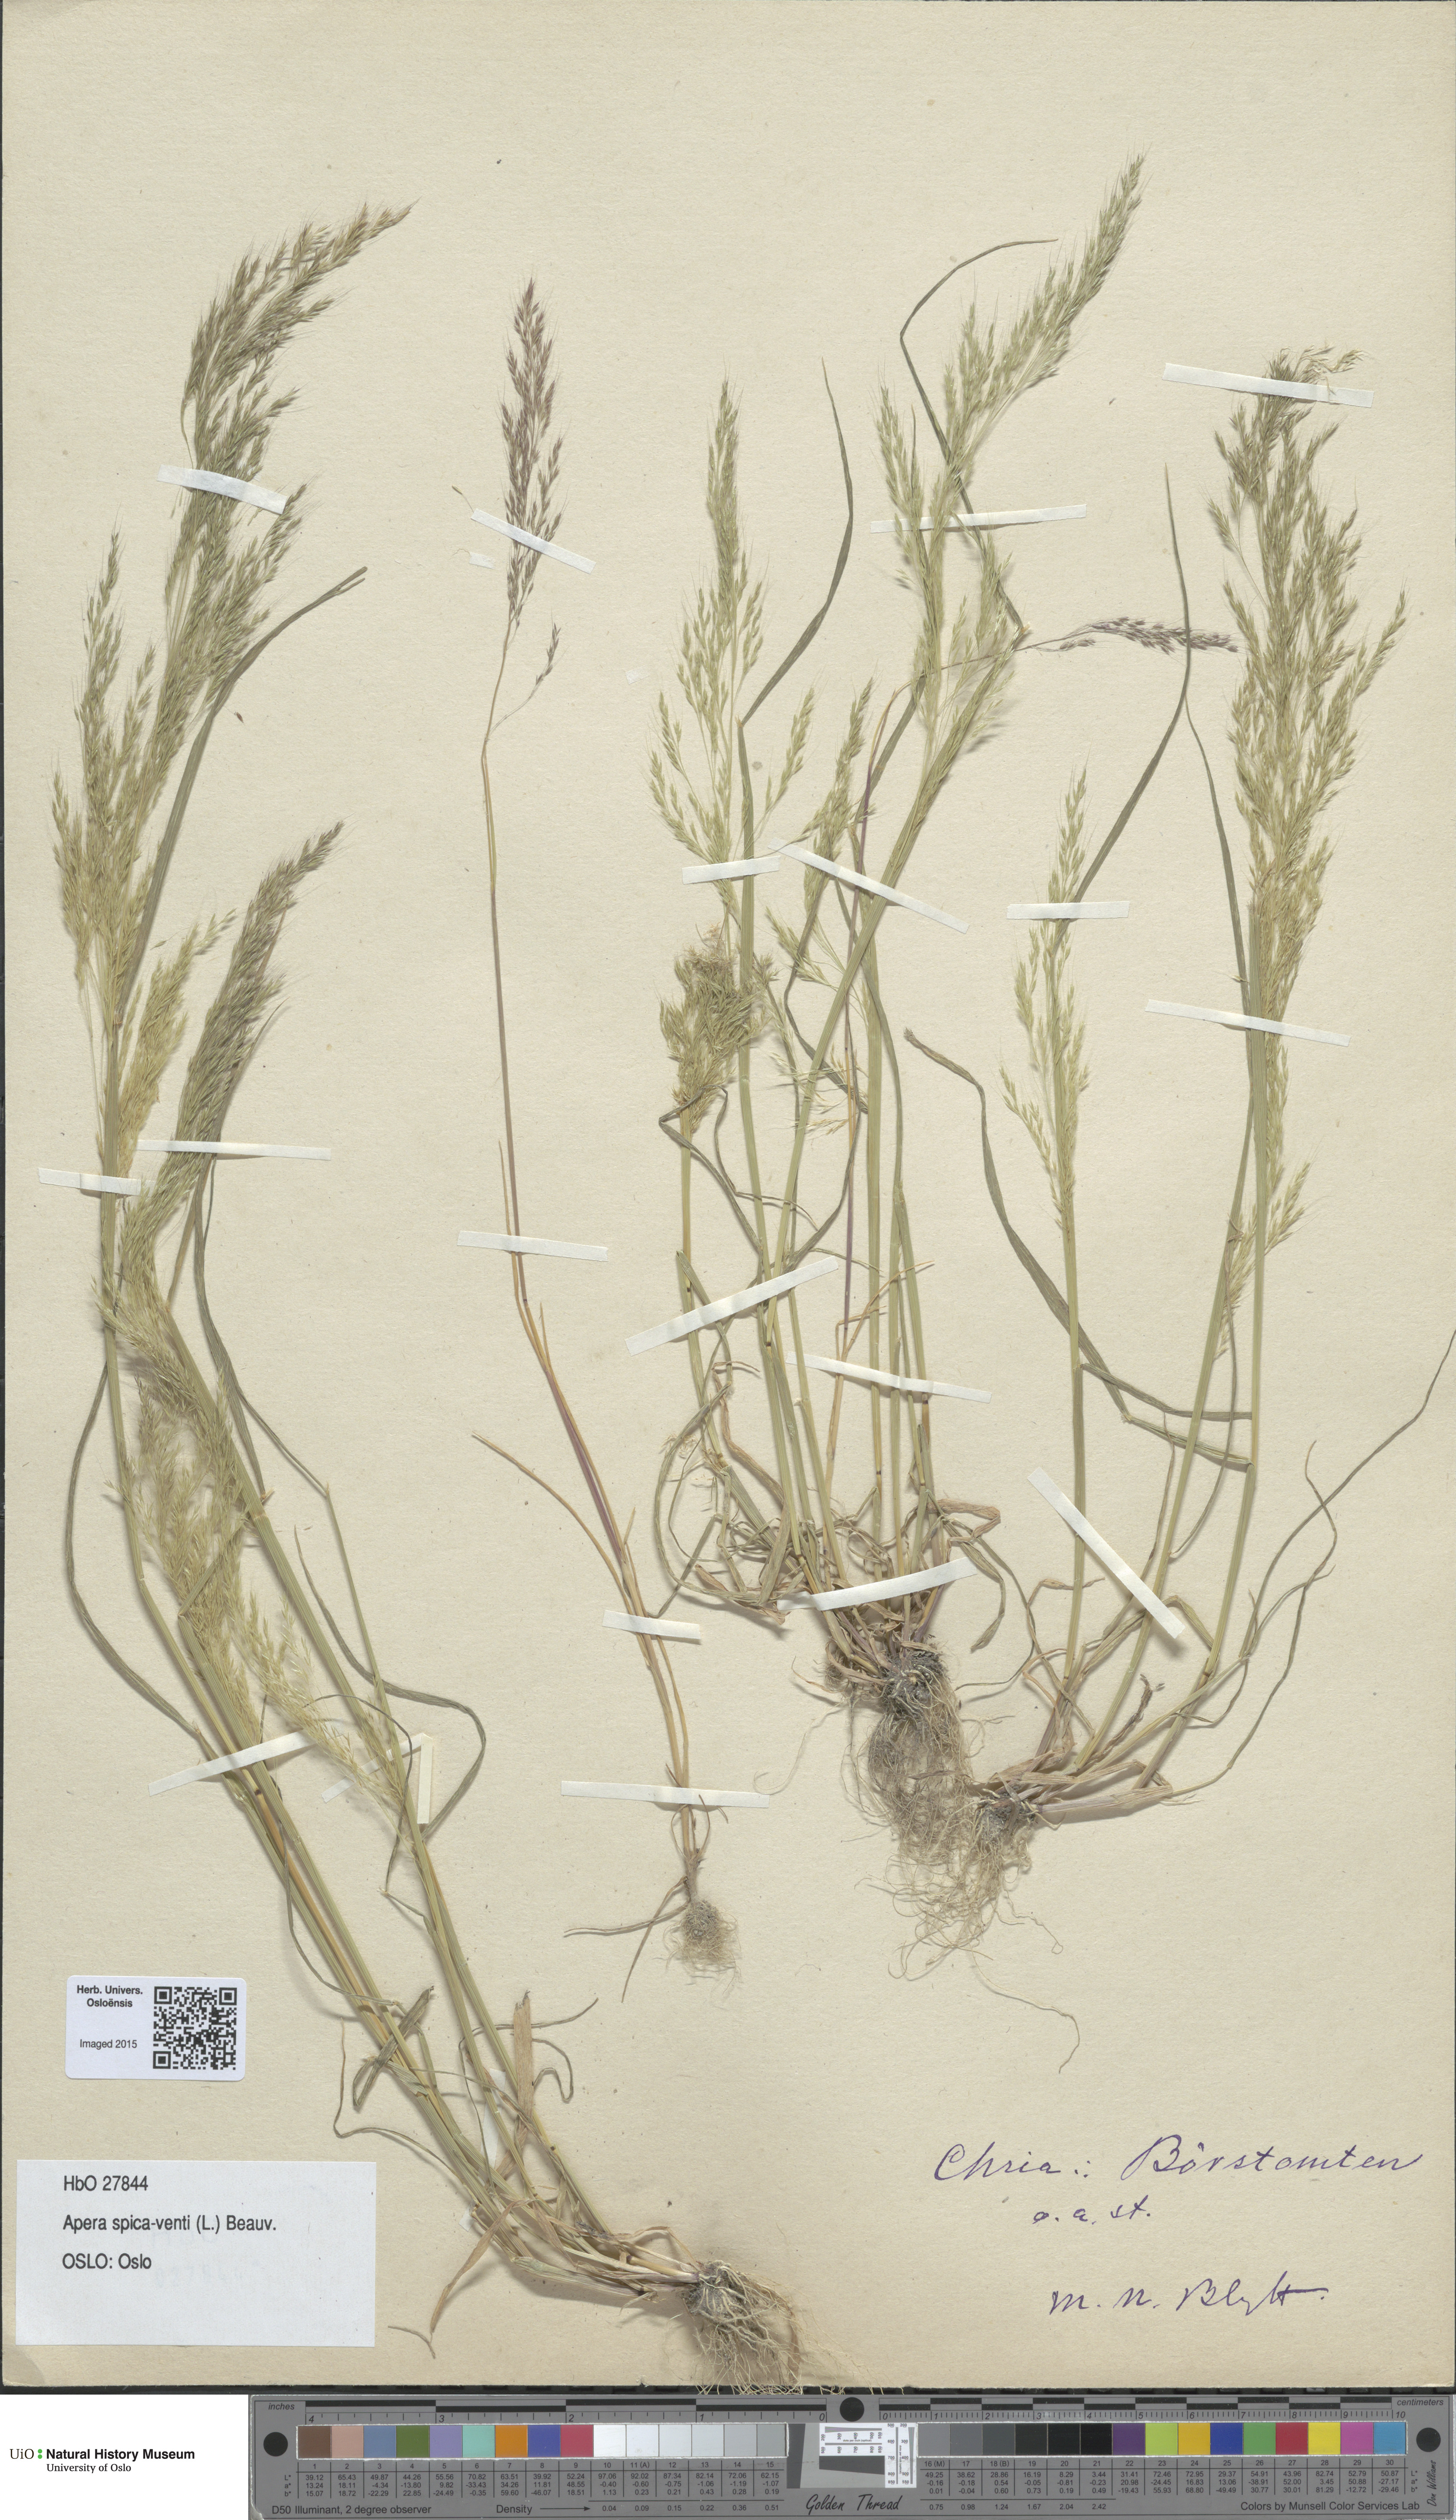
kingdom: Plantae
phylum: Tracheophyta
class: Liliopsida
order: Poales
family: Poaceae
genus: Apera
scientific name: Apera spica-venti
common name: Loose silky-bent
